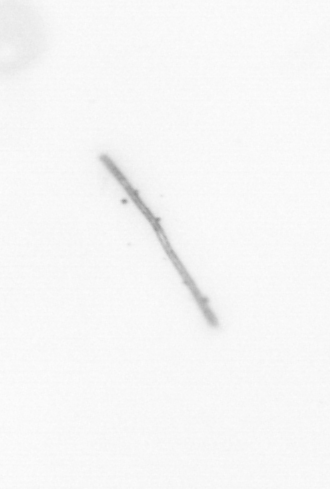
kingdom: Chromista
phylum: Ochrophyta
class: Bacillariophyceae
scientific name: Bacillariophyceae
